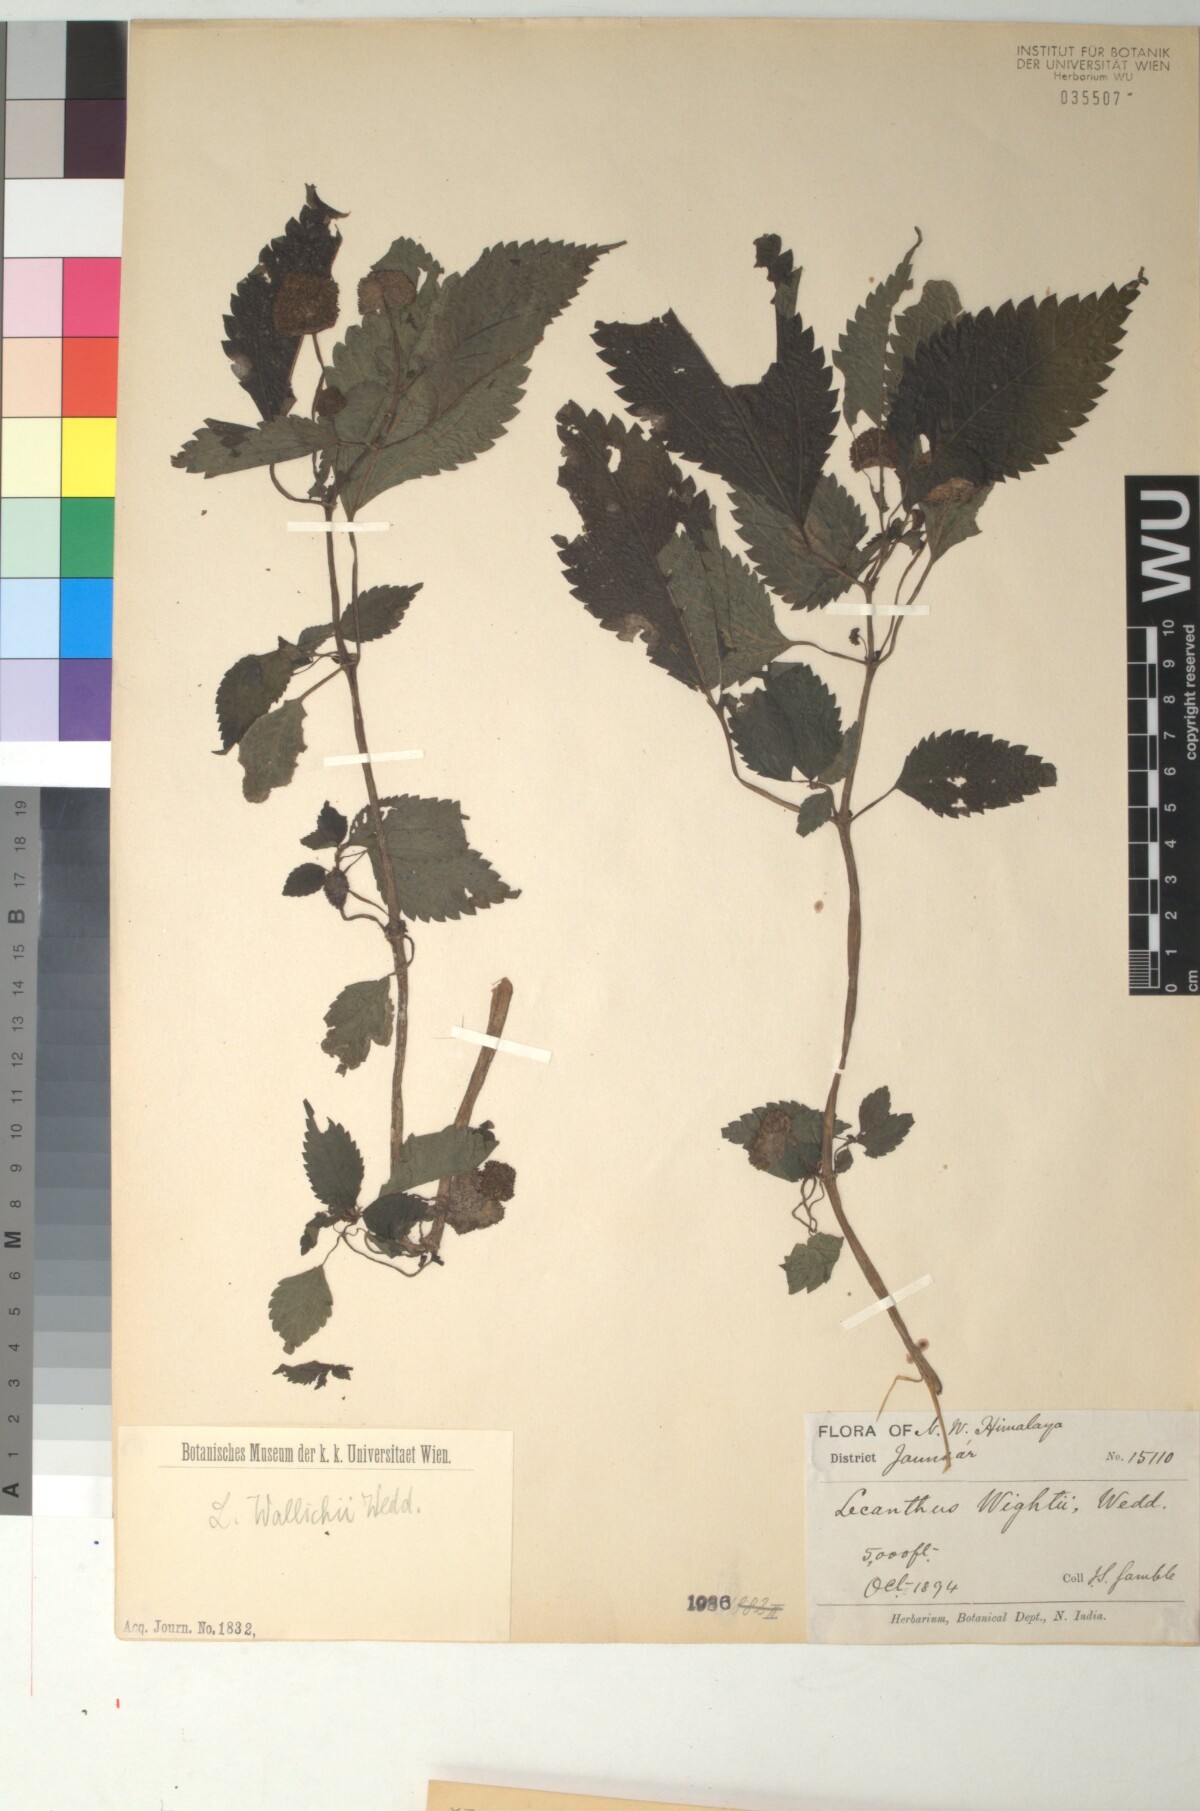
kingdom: Plantae
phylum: Tracheophyta
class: Magnoliopsida
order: Rosales
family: Urticaceae
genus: Lecanthus
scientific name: Lecanthus peduncularis
